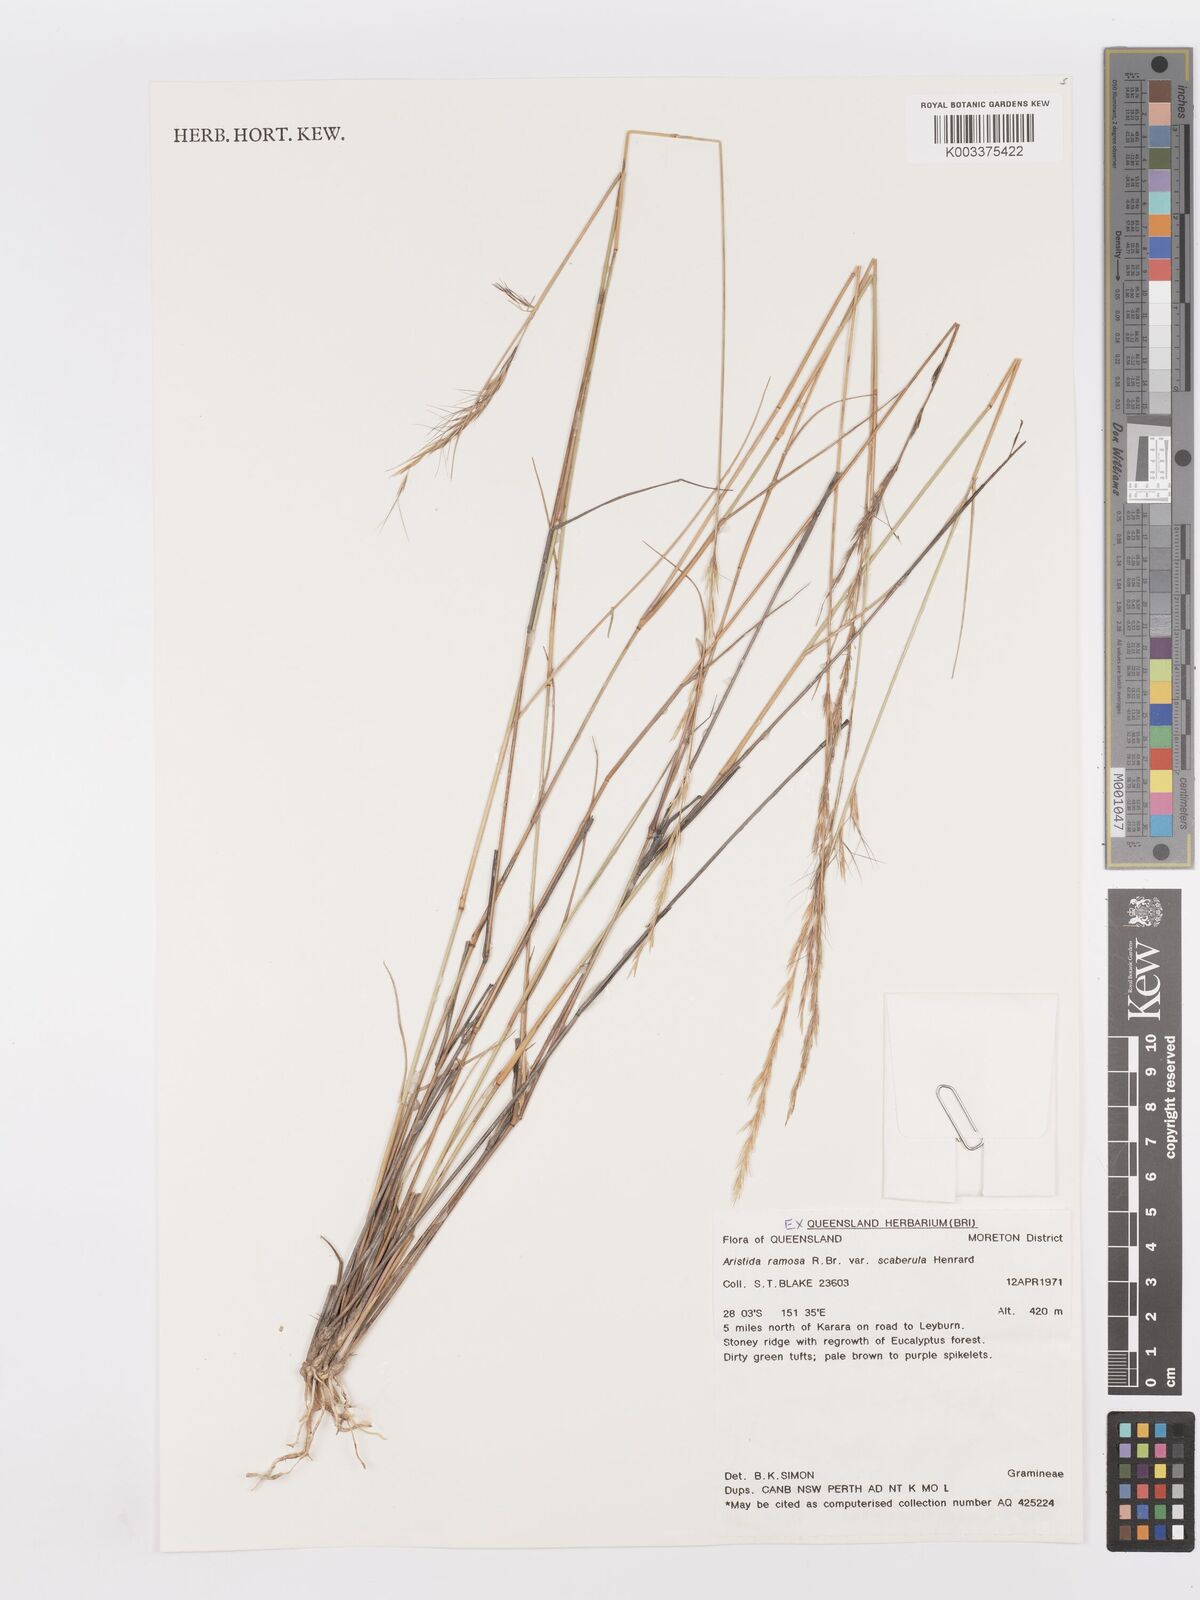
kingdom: Plantae
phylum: Tracheophyta
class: Liliopsida
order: Poales
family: Poaceae
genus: Aristida
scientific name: Aristida ramosa
